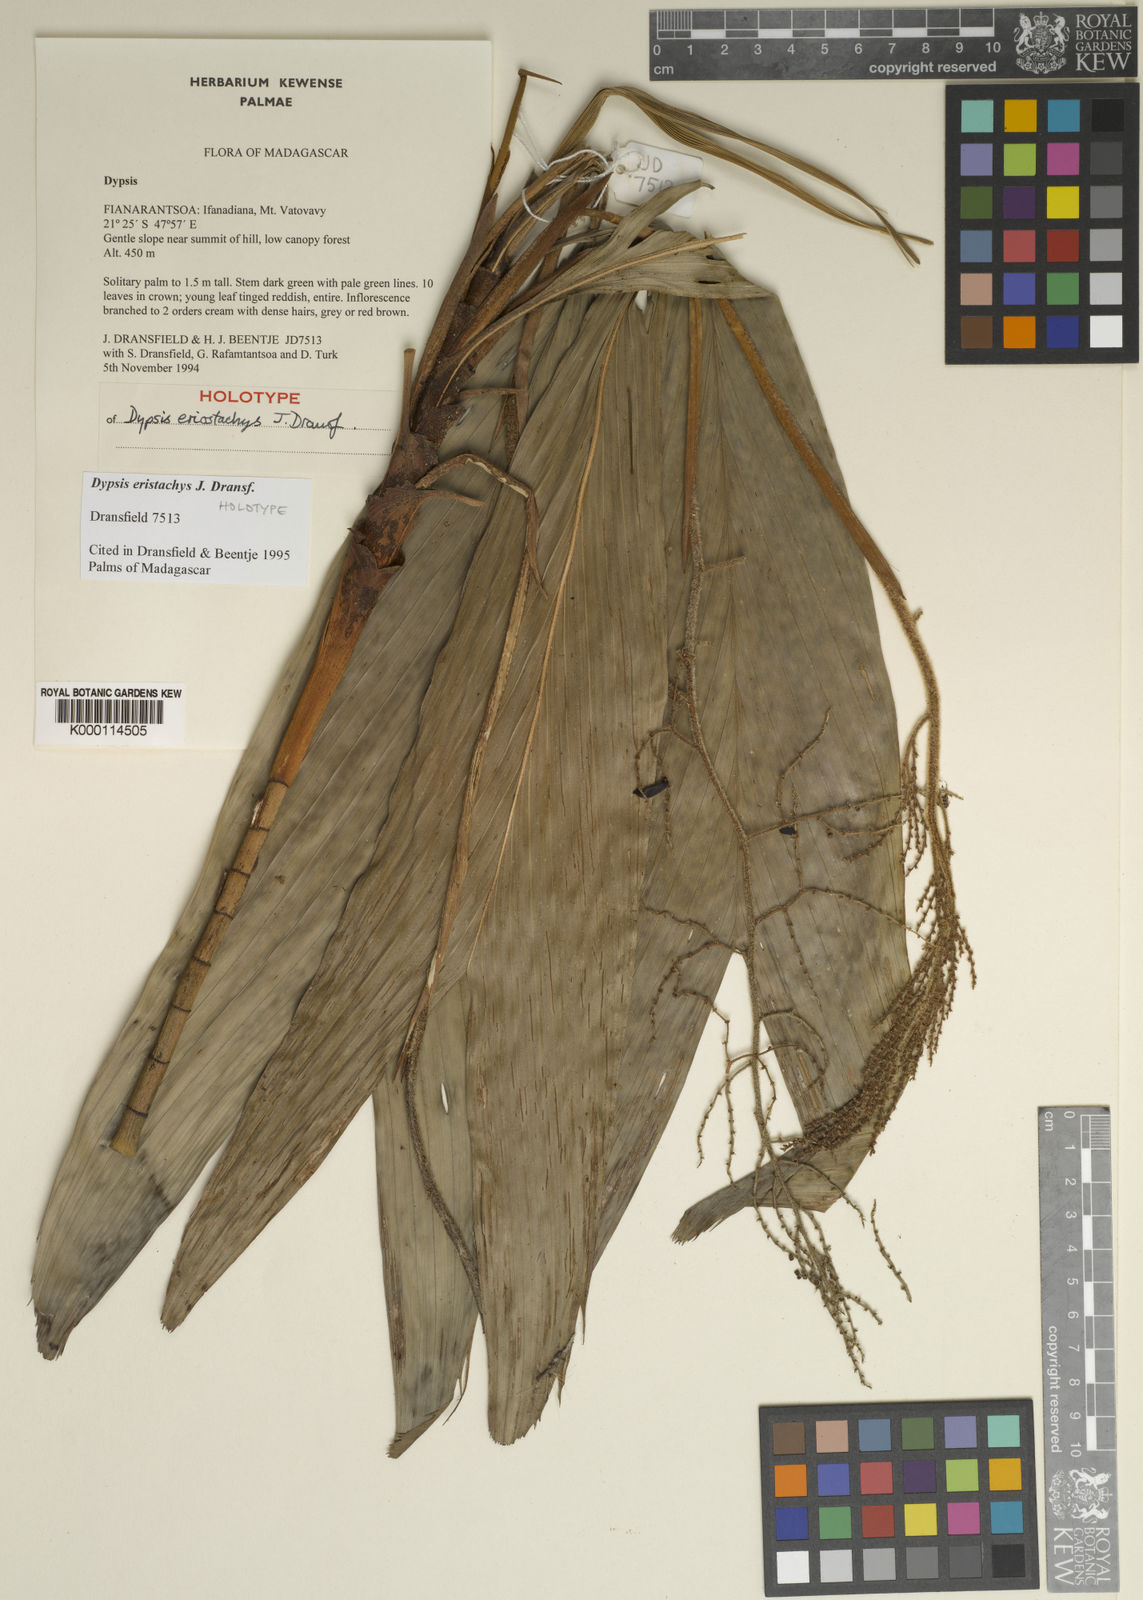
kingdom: Plantae
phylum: Tracheophyta
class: Liliopsida
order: Arecales
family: Arecaceae
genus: Dypsis
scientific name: Dypsis eriostachys
